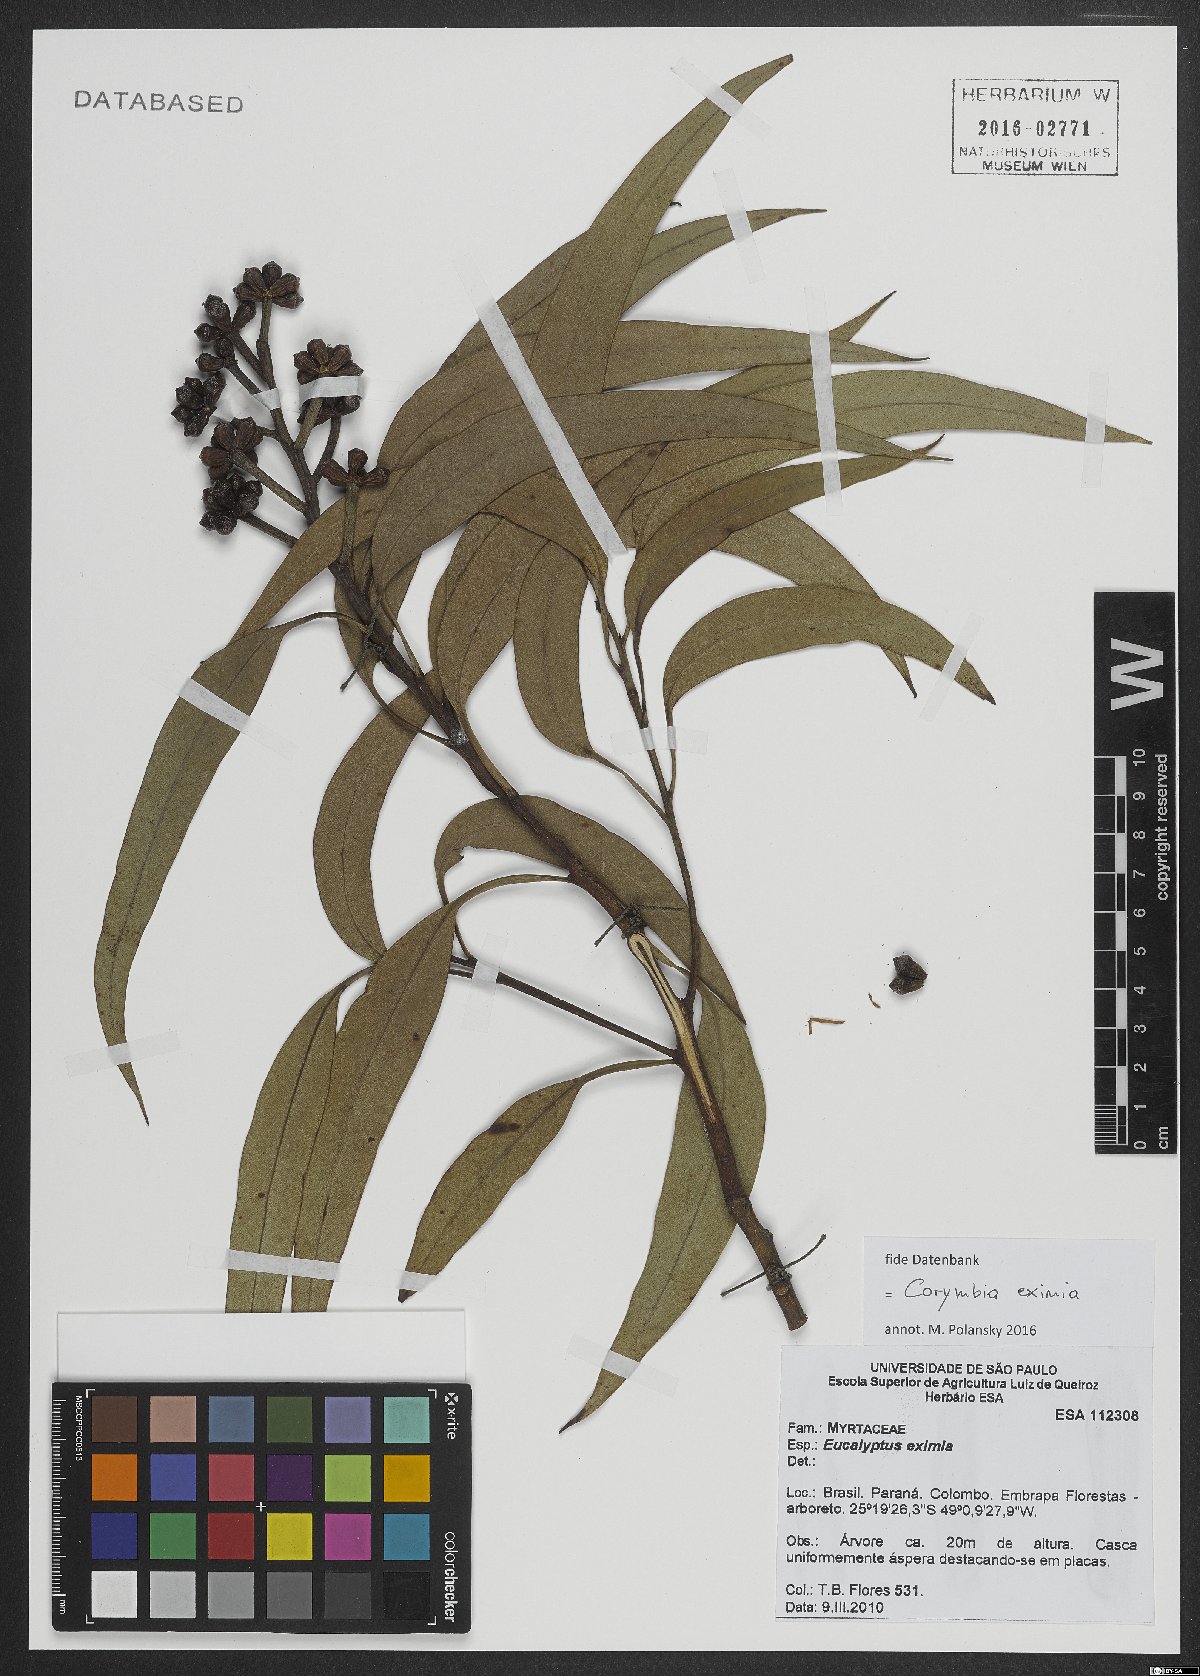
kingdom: Plantae
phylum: Tracheophyta
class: Magnoliopsida
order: Myrtales
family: Myrtaceae
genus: Corymbia
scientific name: Corymbia eximia
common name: Yellow bloodwood
